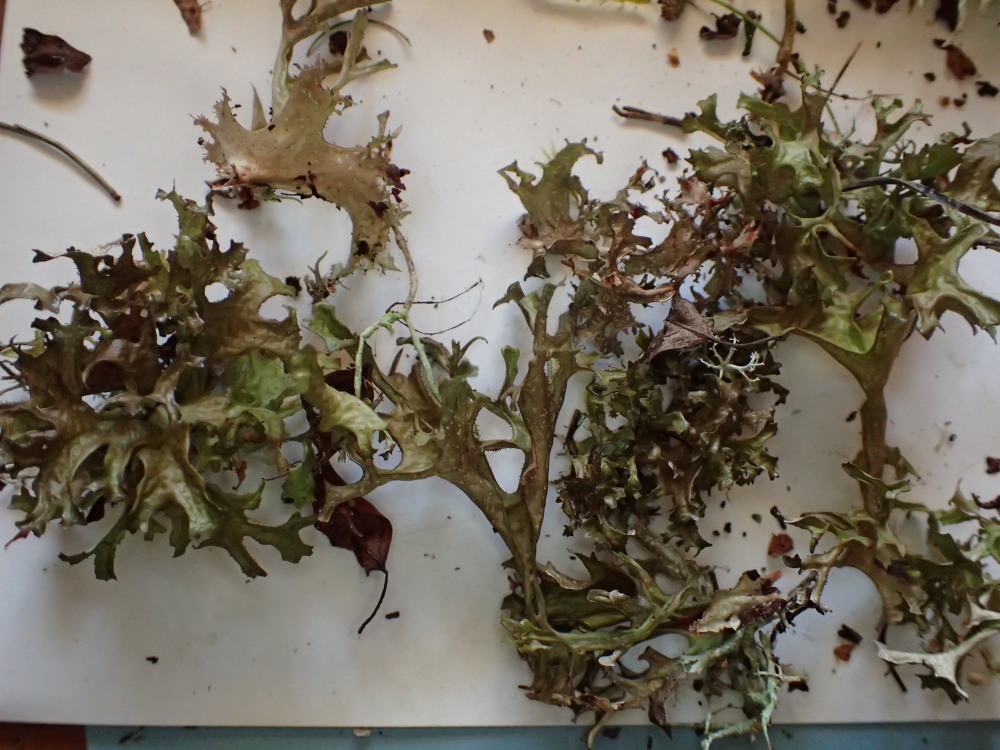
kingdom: Fungi
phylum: Ascomycota
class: Lecanoromycetes
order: Lecanorales
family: Parmeliaceae
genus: Cetraria
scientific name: Cetraria islandica
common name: islandsk kruslav
